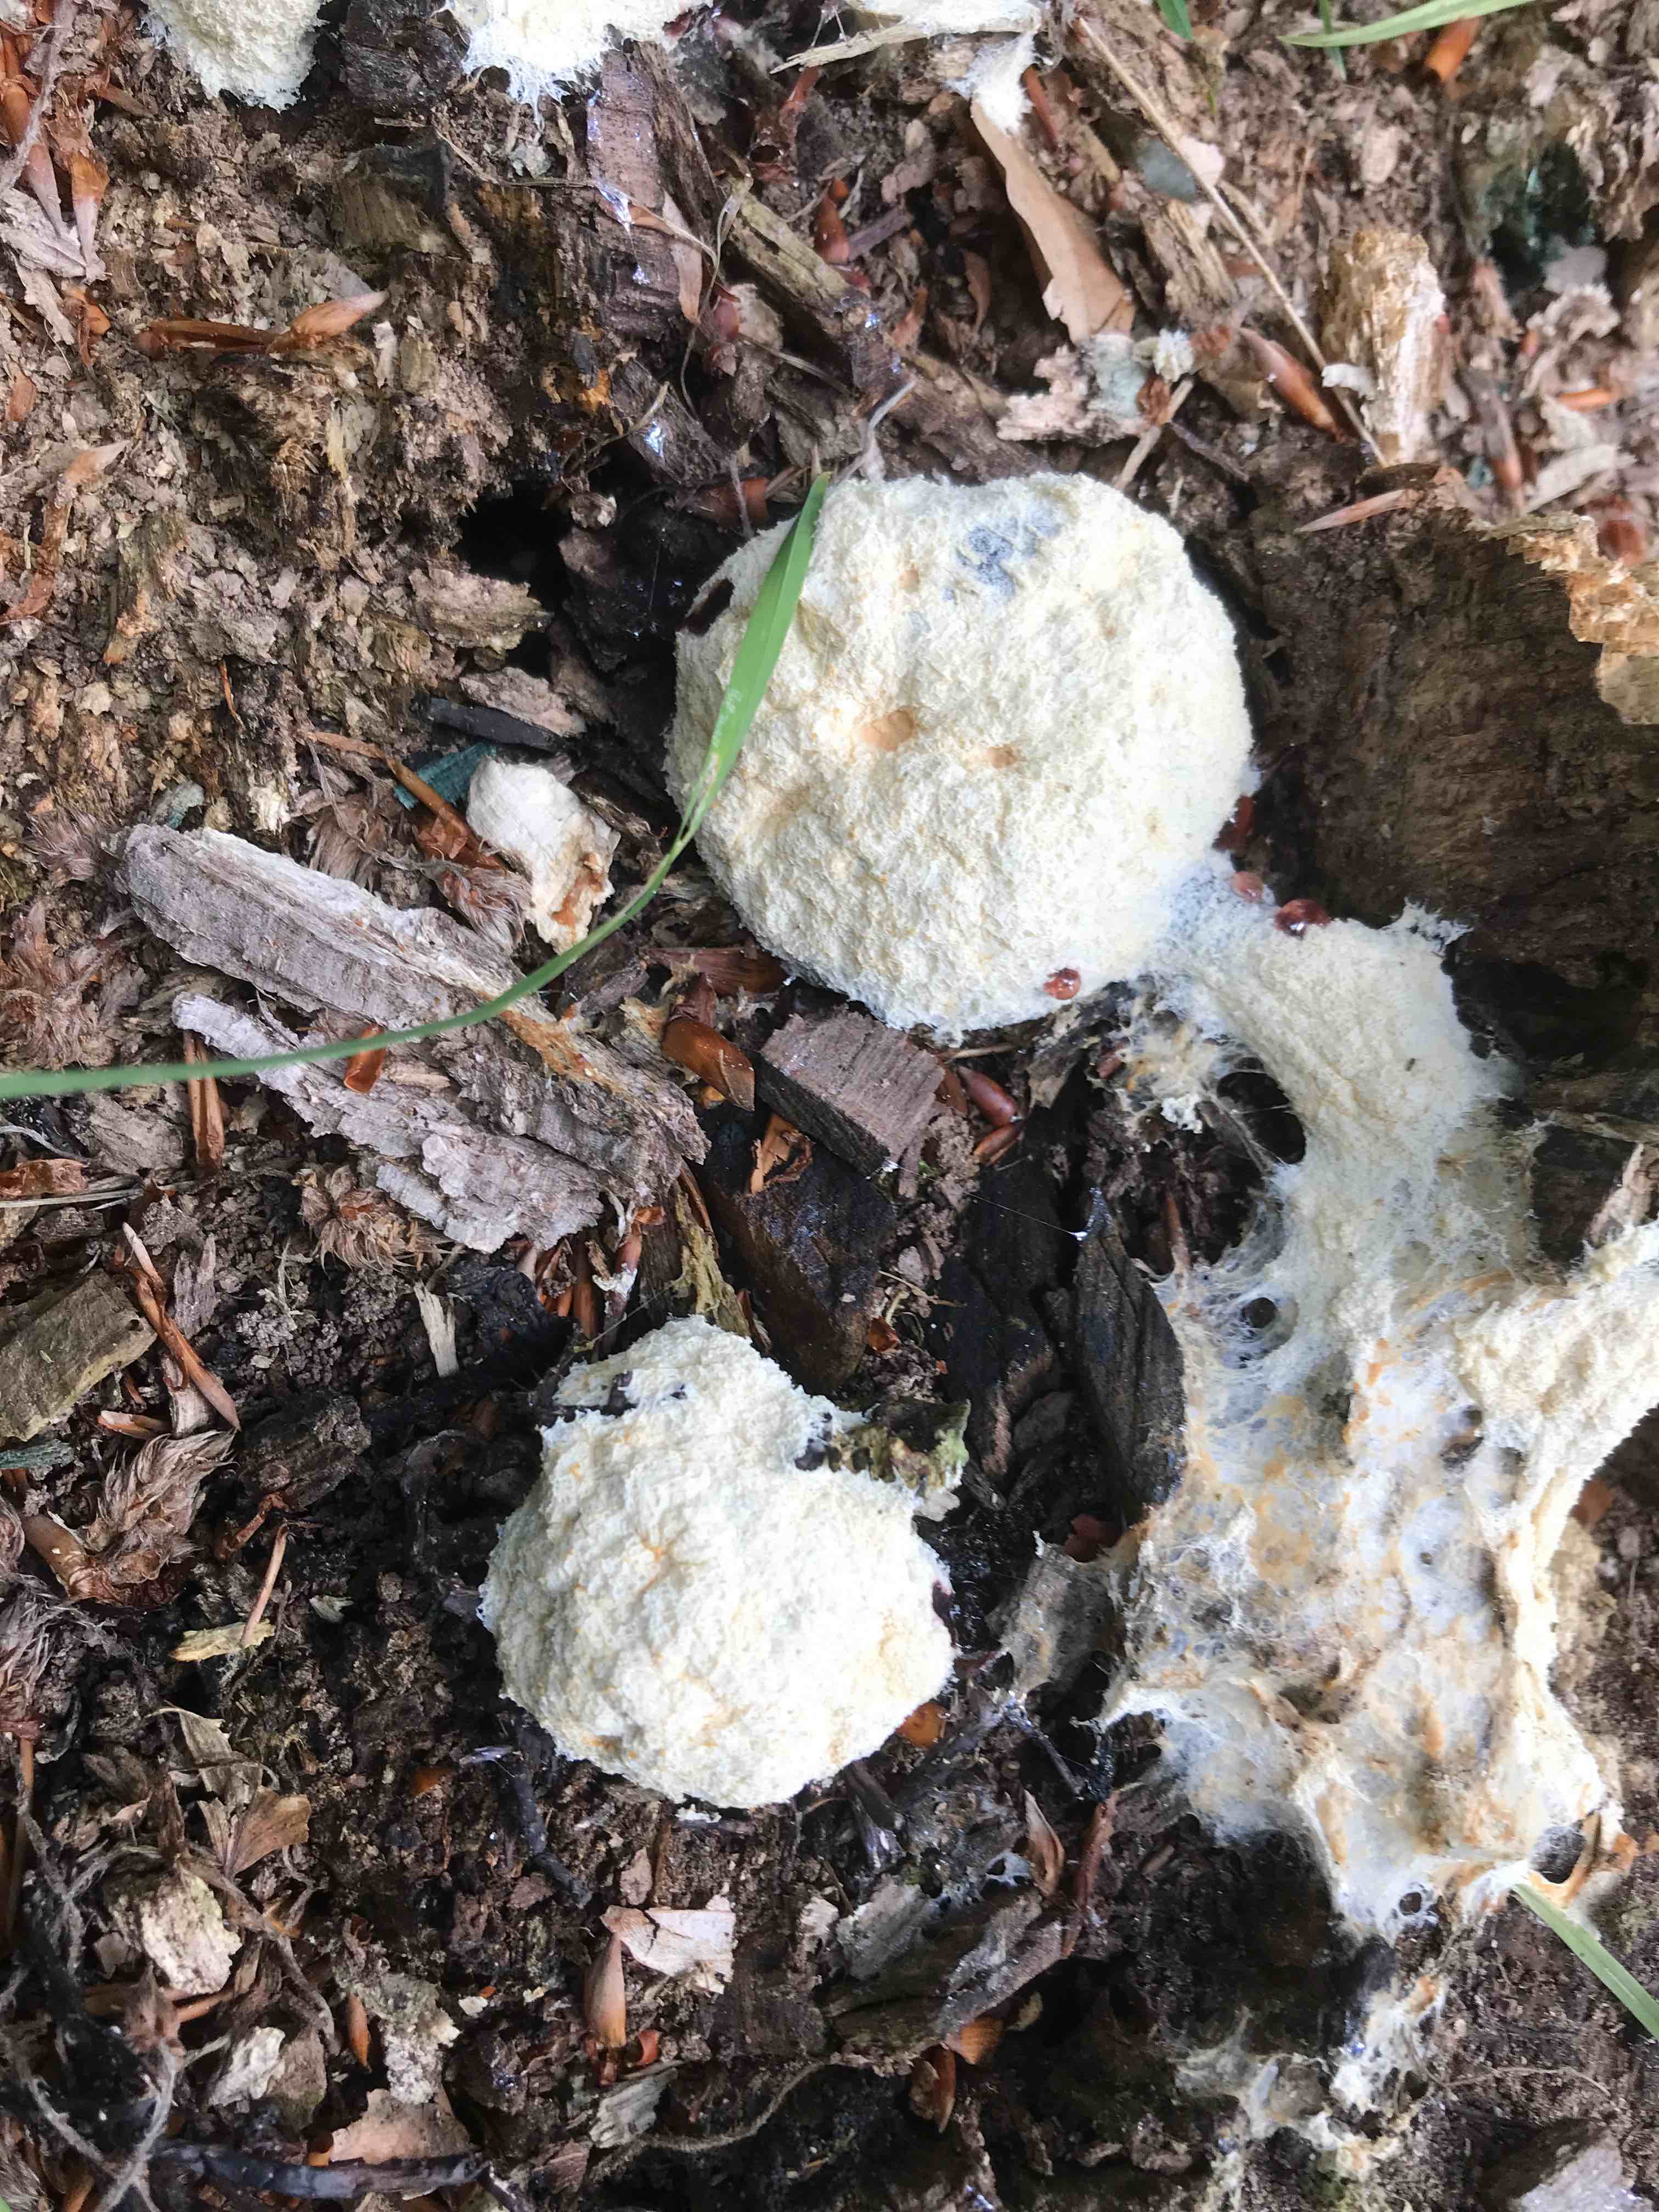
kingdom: Protozoa
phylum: Mycetozoa
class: Myxomycetes
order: Physarales
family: Physaraceae
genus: Fuligo
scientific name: Fuligo septica
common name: gul troldsmør
